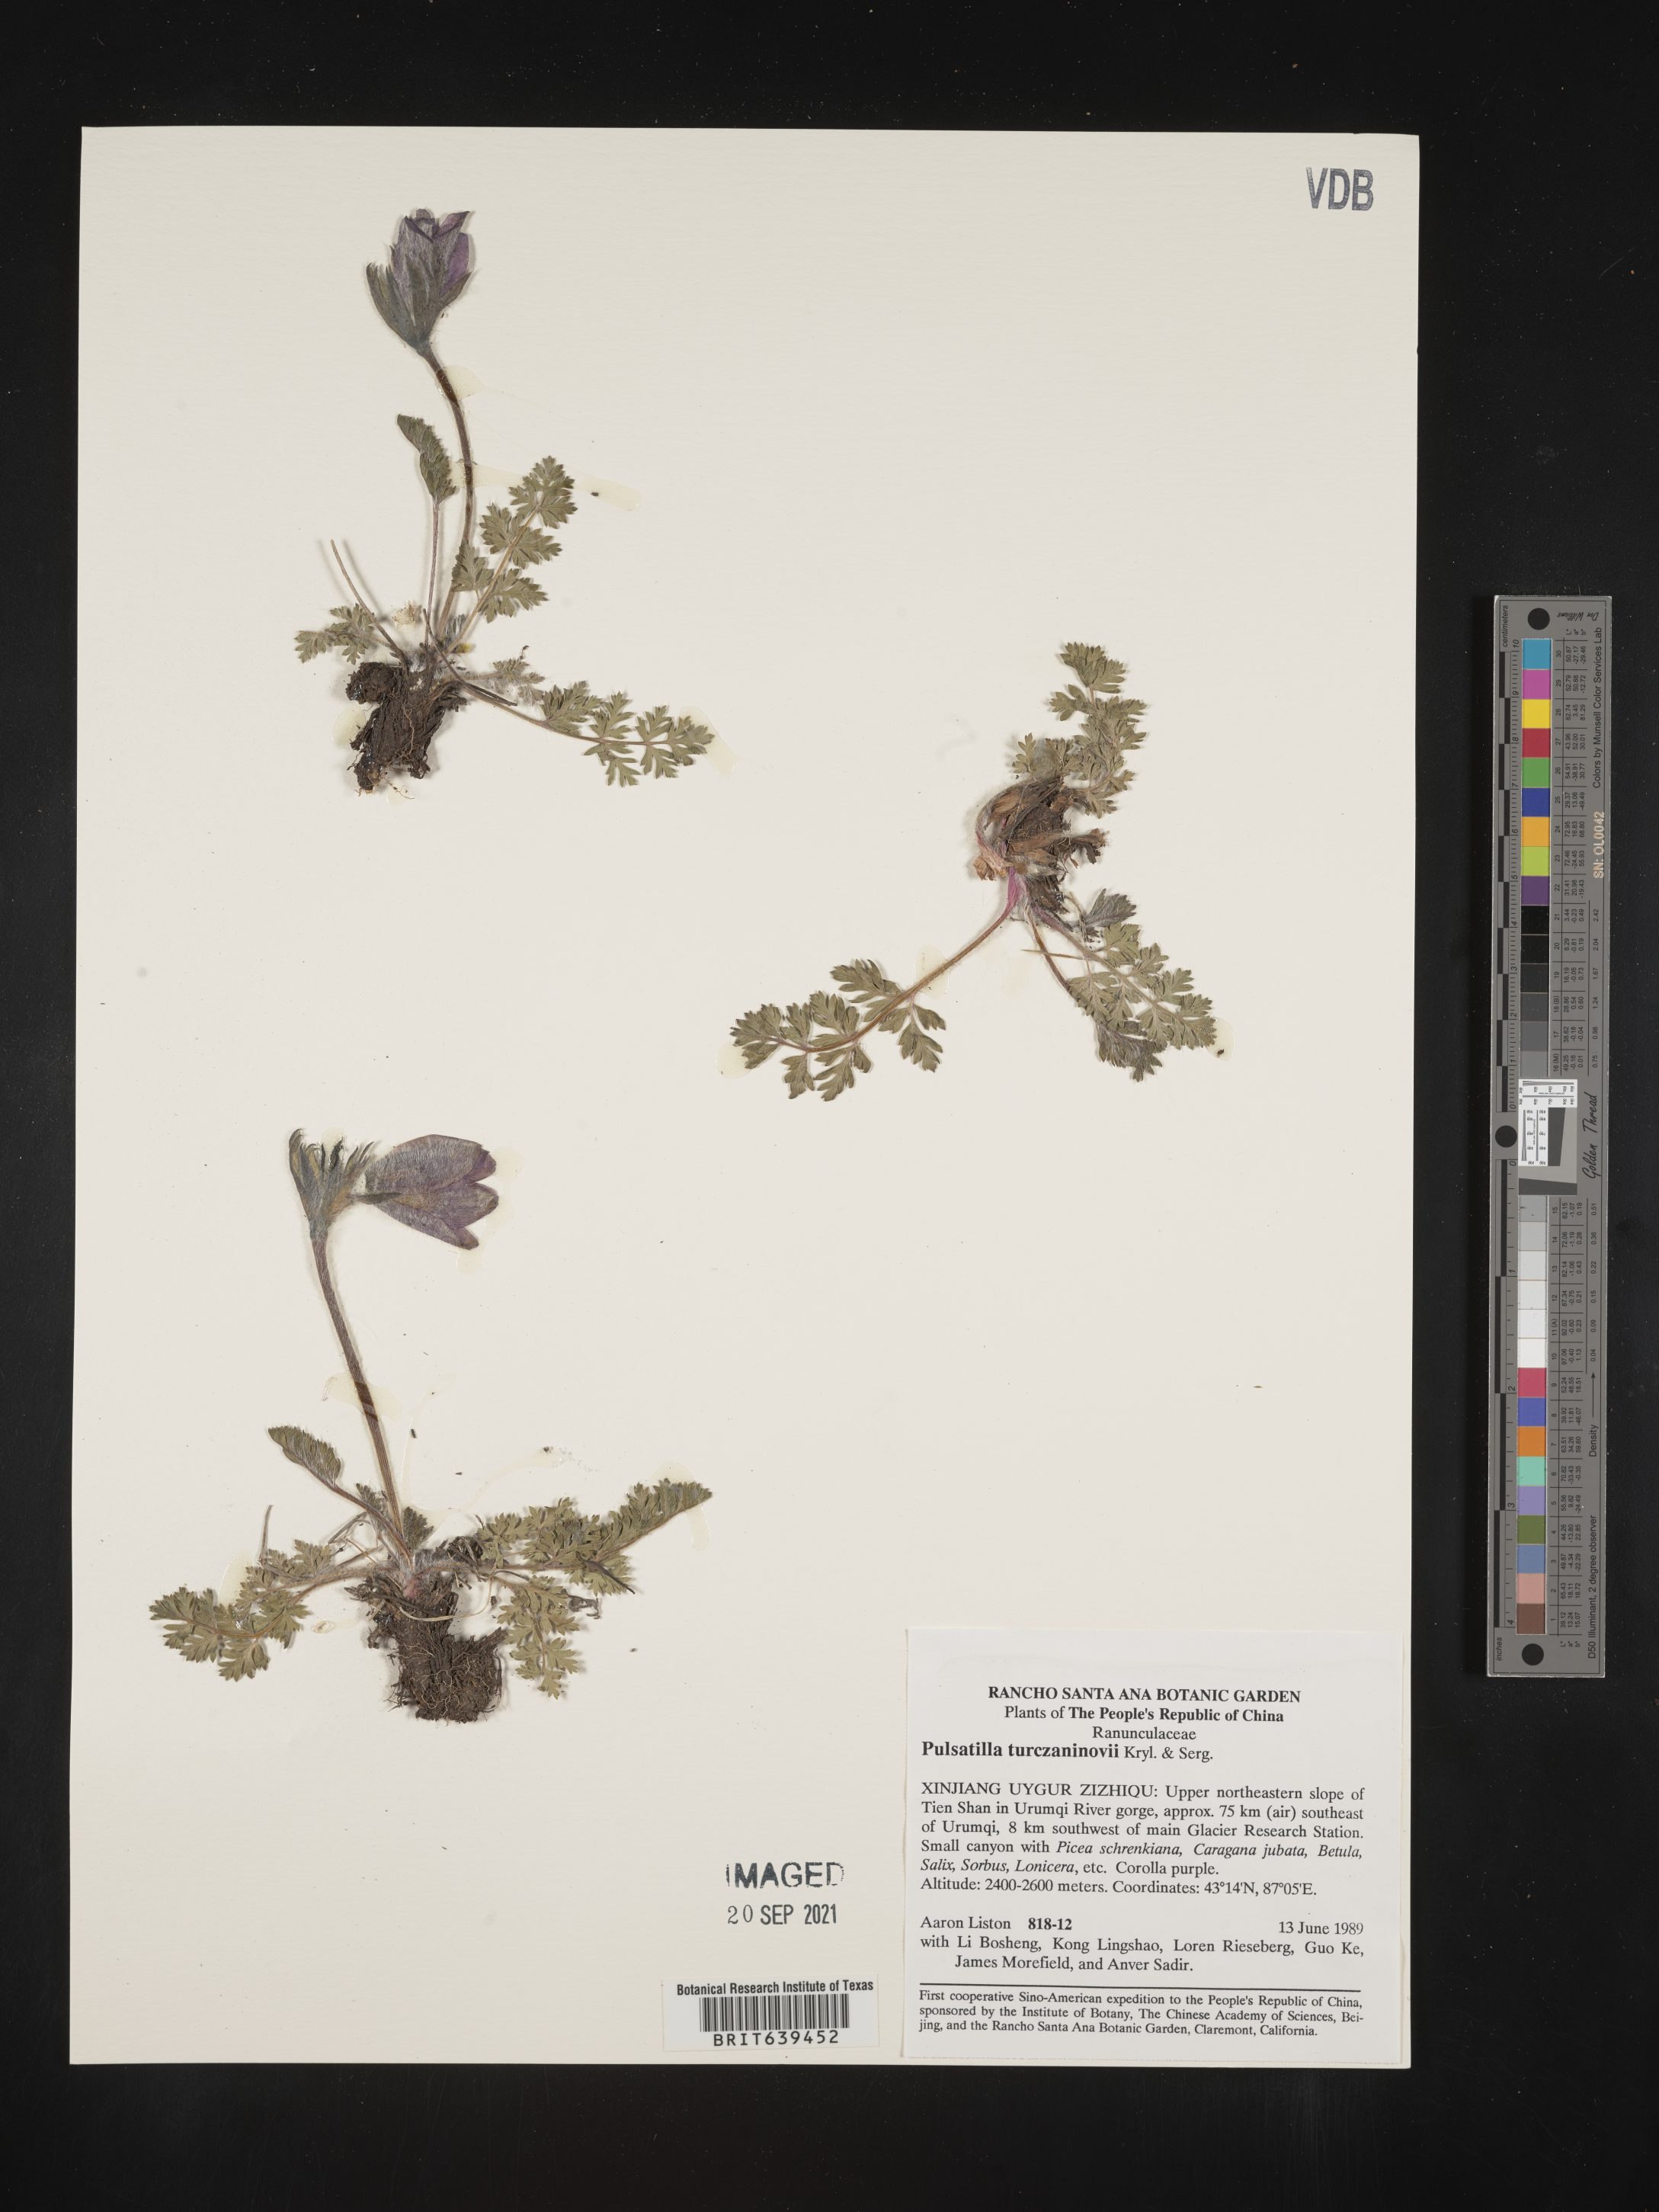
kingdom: Plantae
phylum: Tracheophyta
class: Magnoliopsida
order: Ranunculales
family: Ranunculaceae
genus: Anemone
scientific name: Anemone
